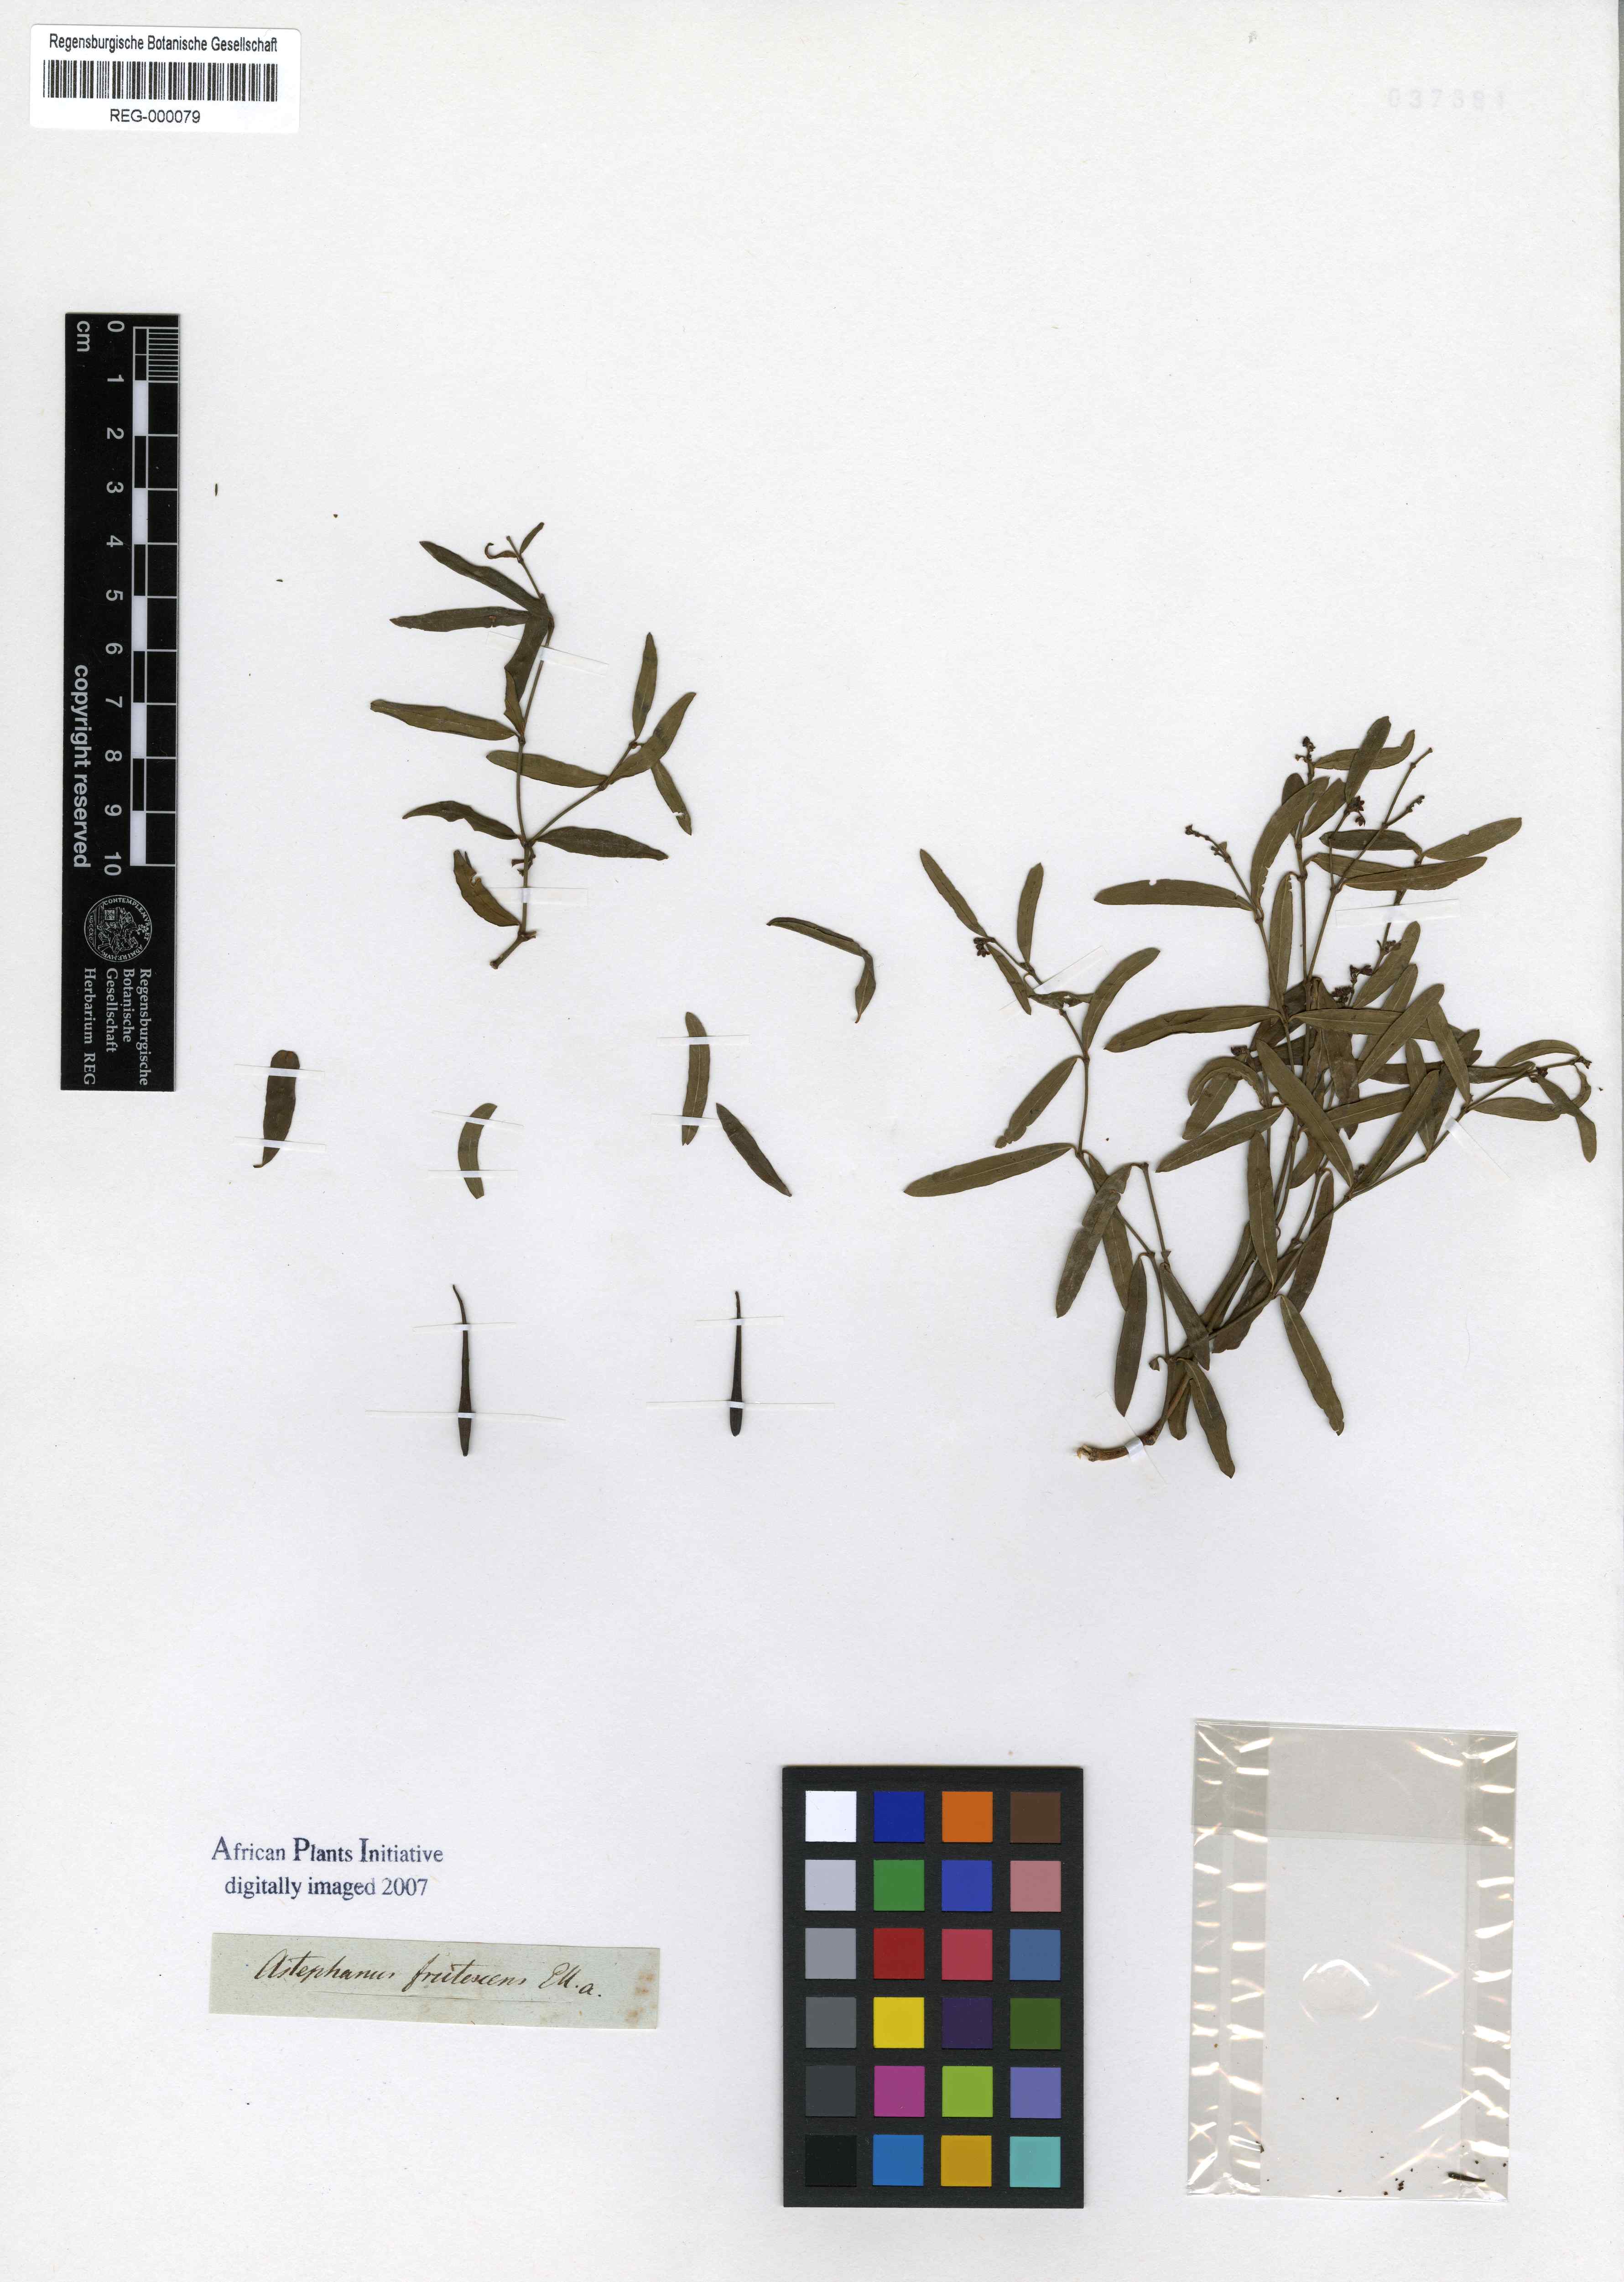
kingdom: Plantae
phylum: Tracheophyta
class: Magnoliopsida
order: Gentianales
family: Apocynaceae
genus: Secamone
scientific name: Secamone filiformis
